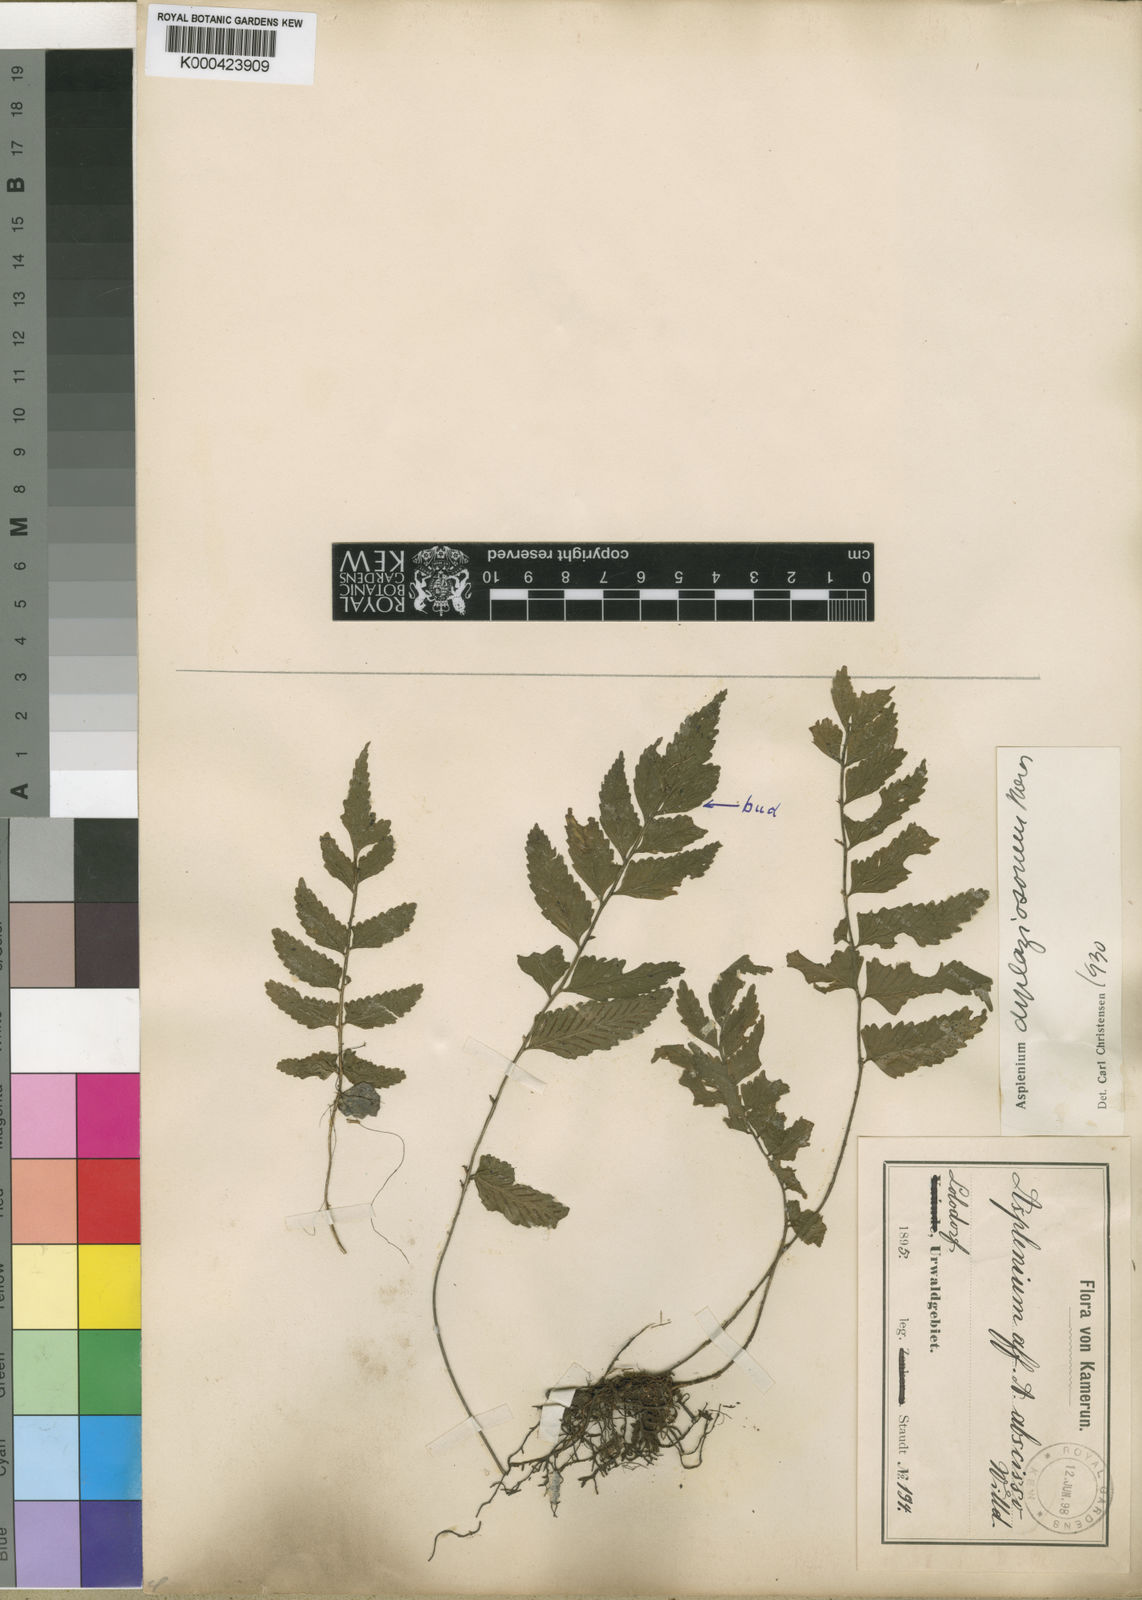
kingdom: Plantae
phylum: Tracheophyta
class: Polypodiopsida
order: Polypodiales
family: Aspleniaceae
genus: Asplenium
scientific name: Asplenium
